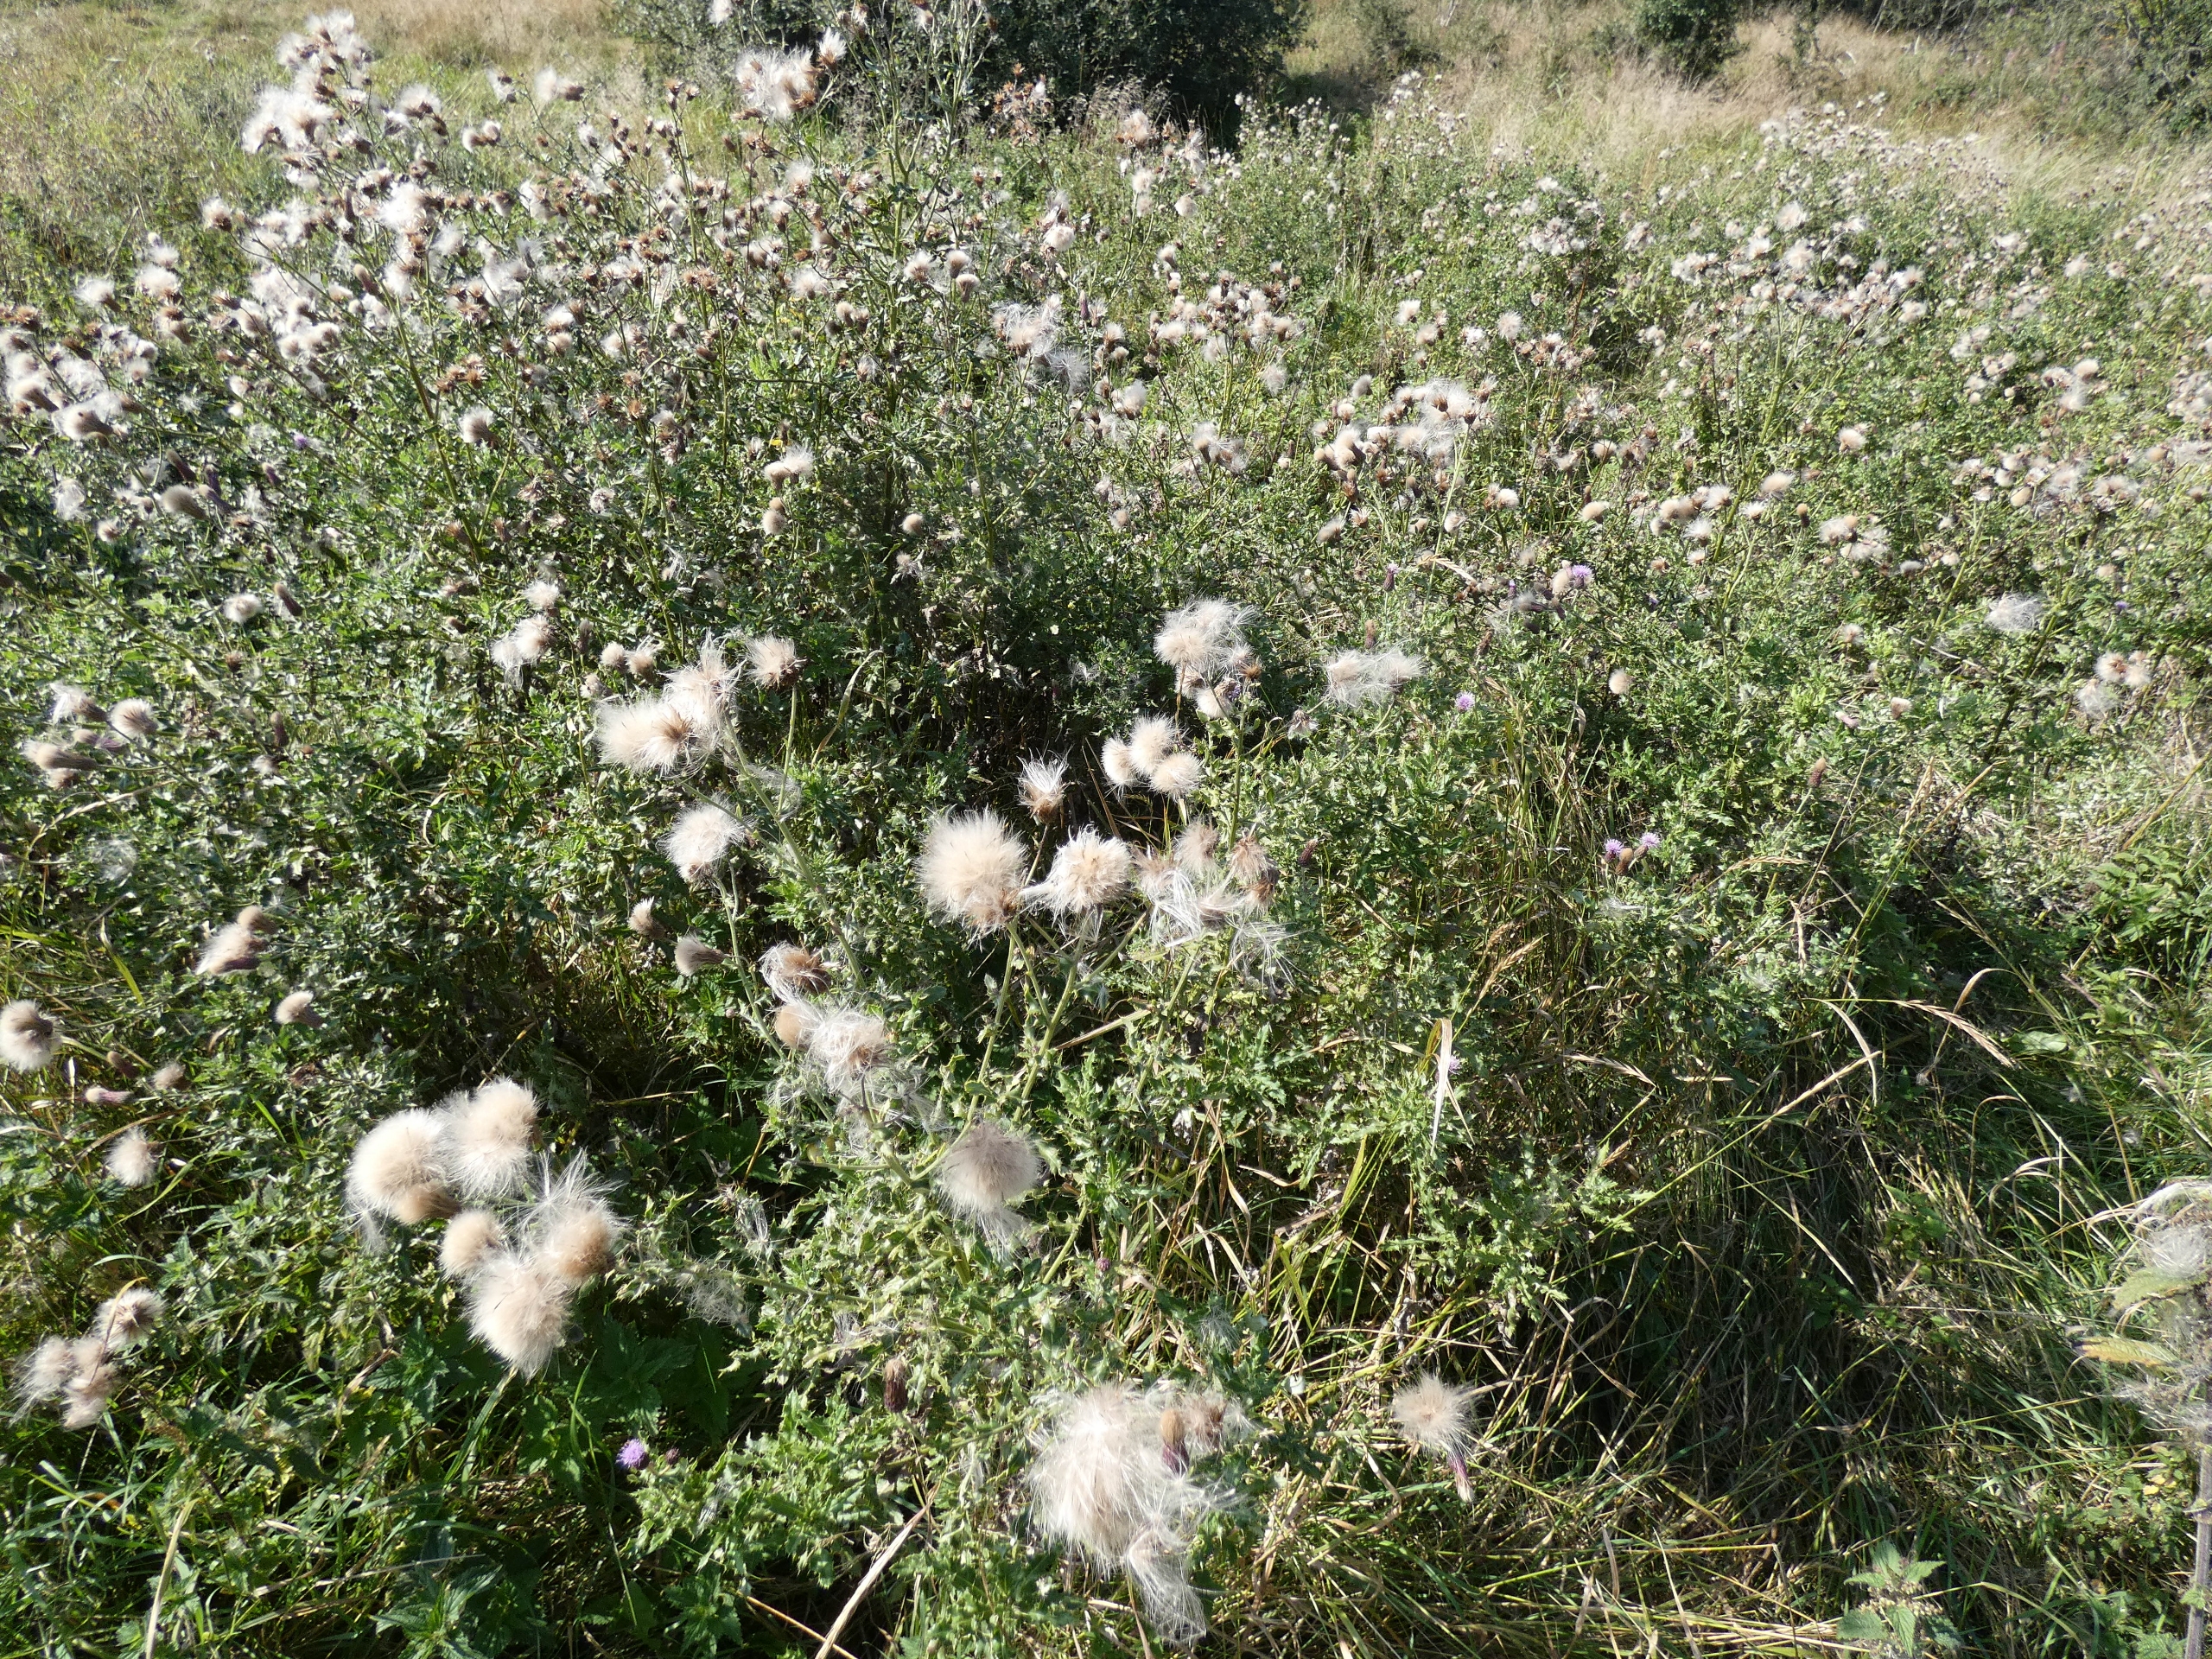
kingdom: Plantae
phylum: Tracheophyta
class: Magnoliopsida
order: Asterales
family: Asteraceae
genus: Cirsium
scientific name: Cirsium arvense
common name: Ager-tidsel
